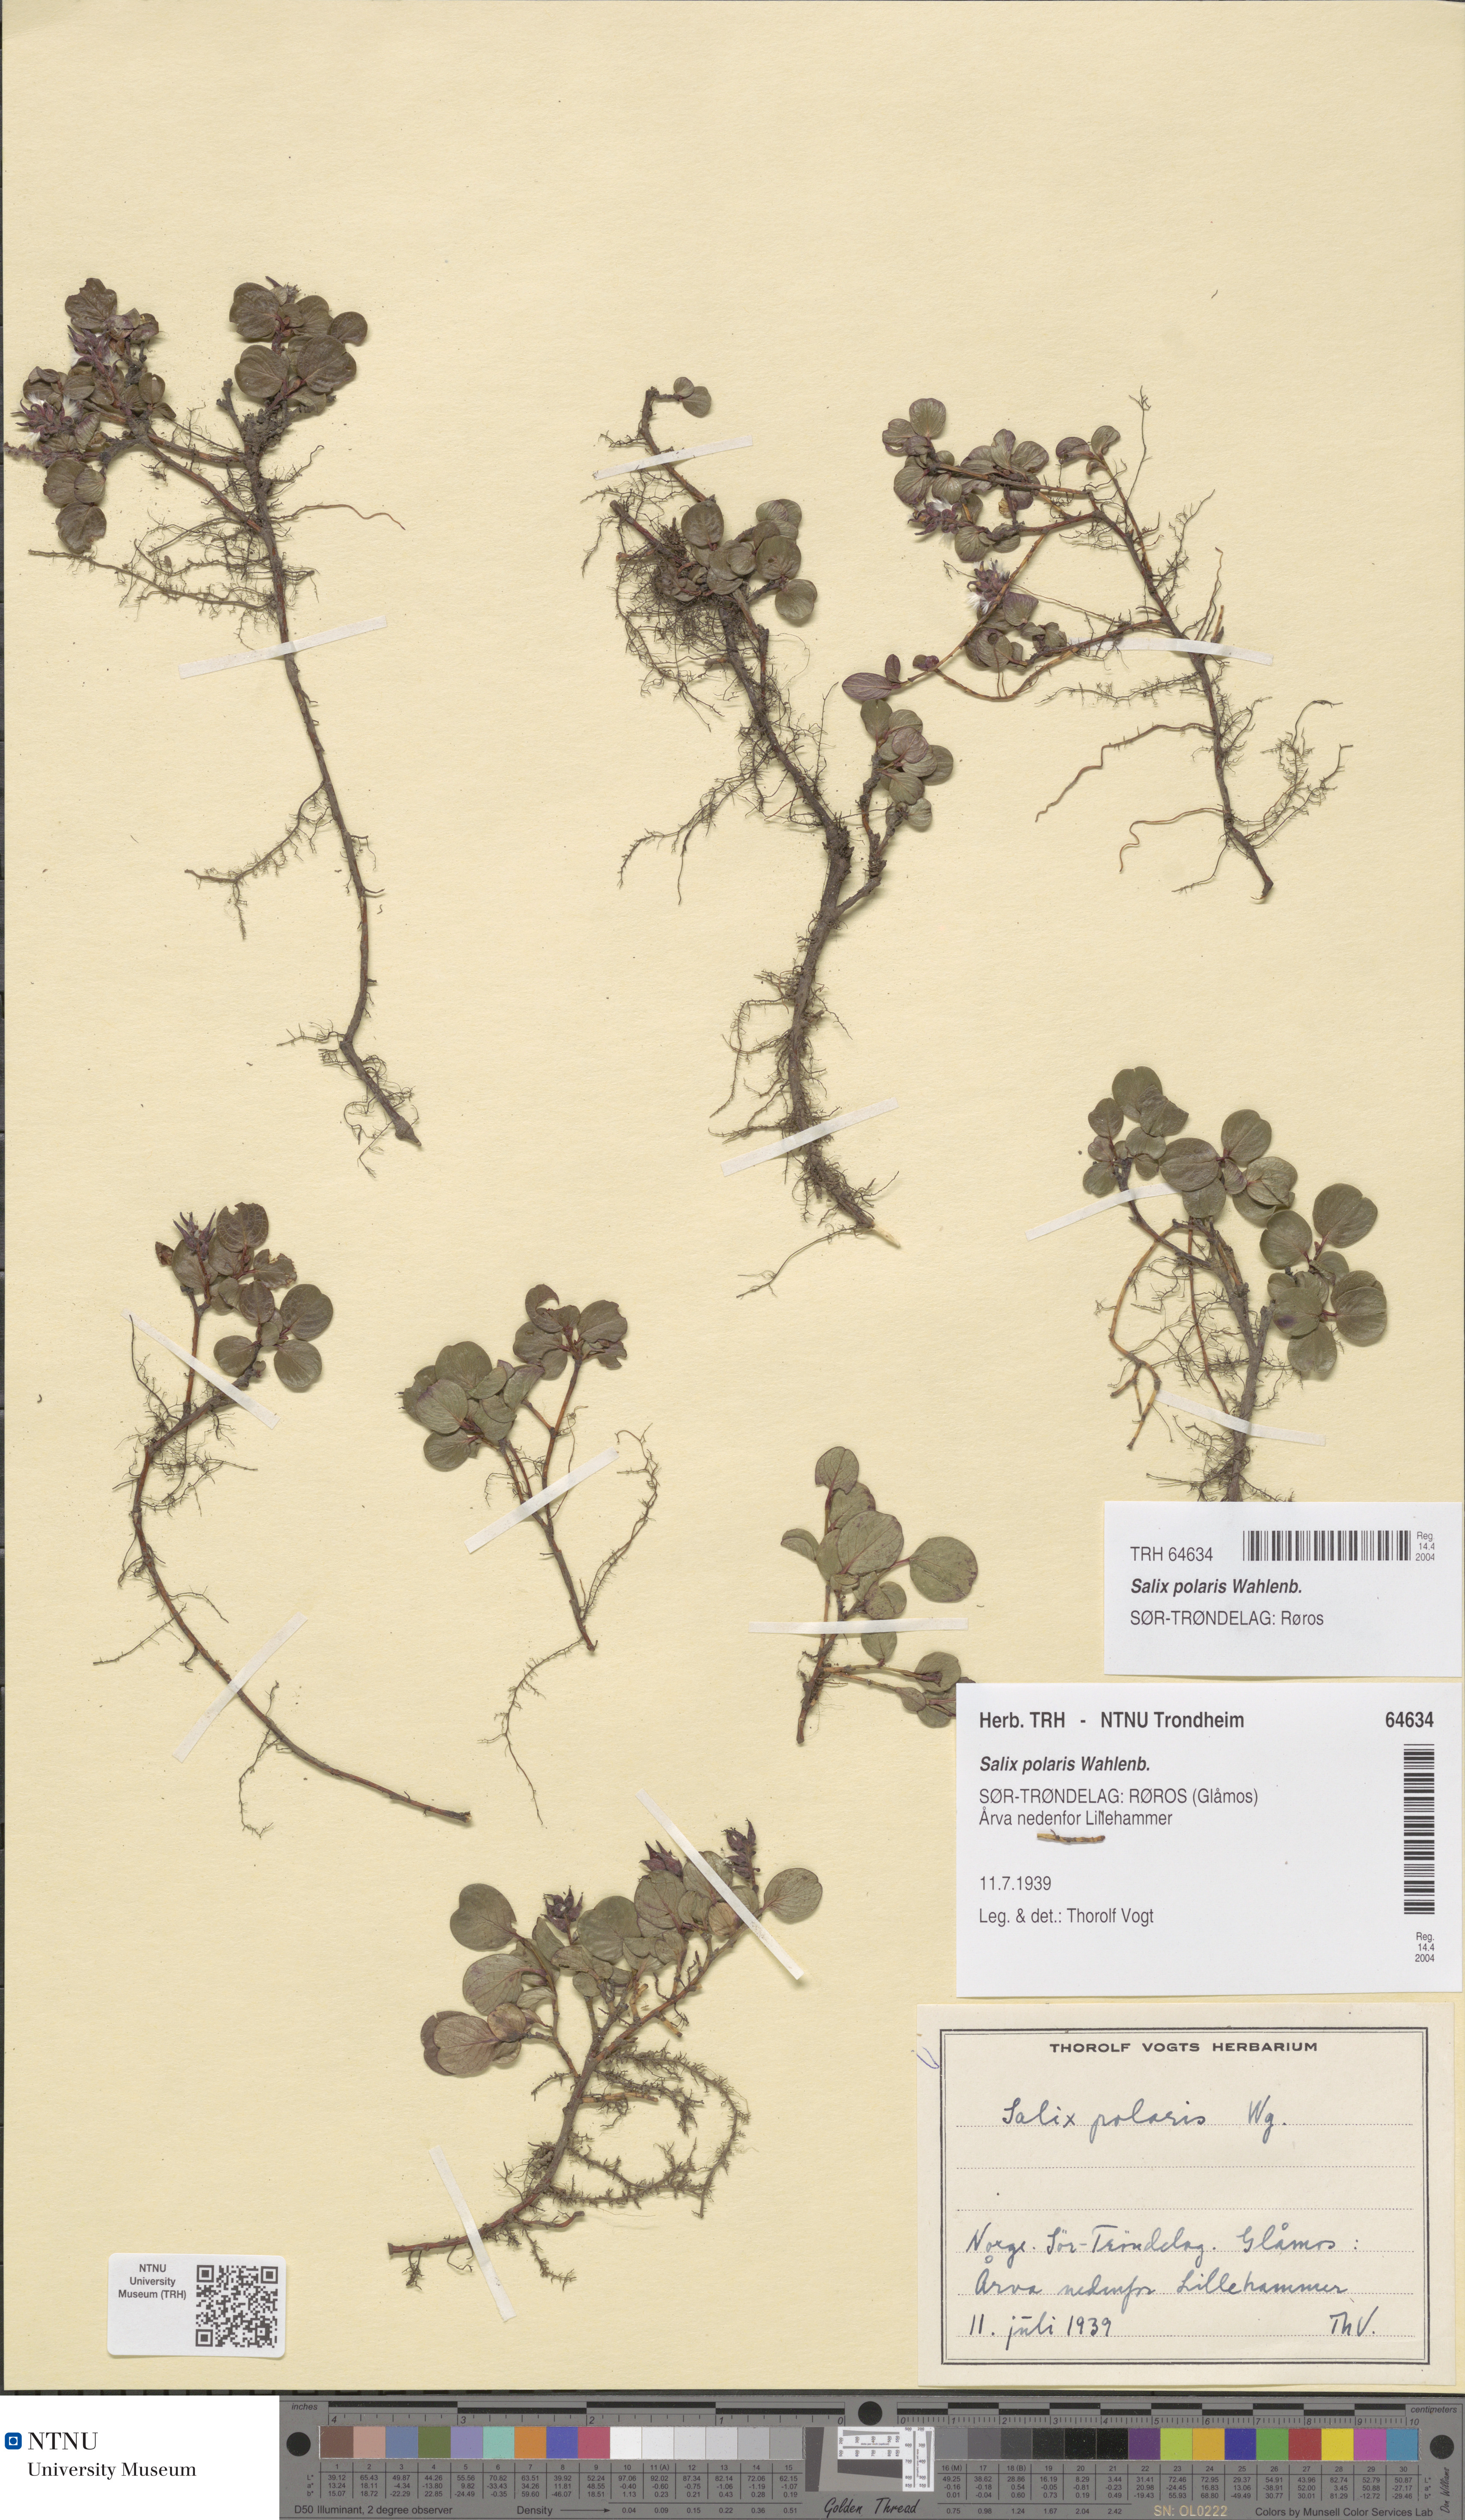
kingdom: Plantae
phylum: Tracheophyta
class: Magnoliopsida
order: Malpighiales
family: Salicaceae
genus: Salix
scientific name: Salix polaris
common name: Polar willow
